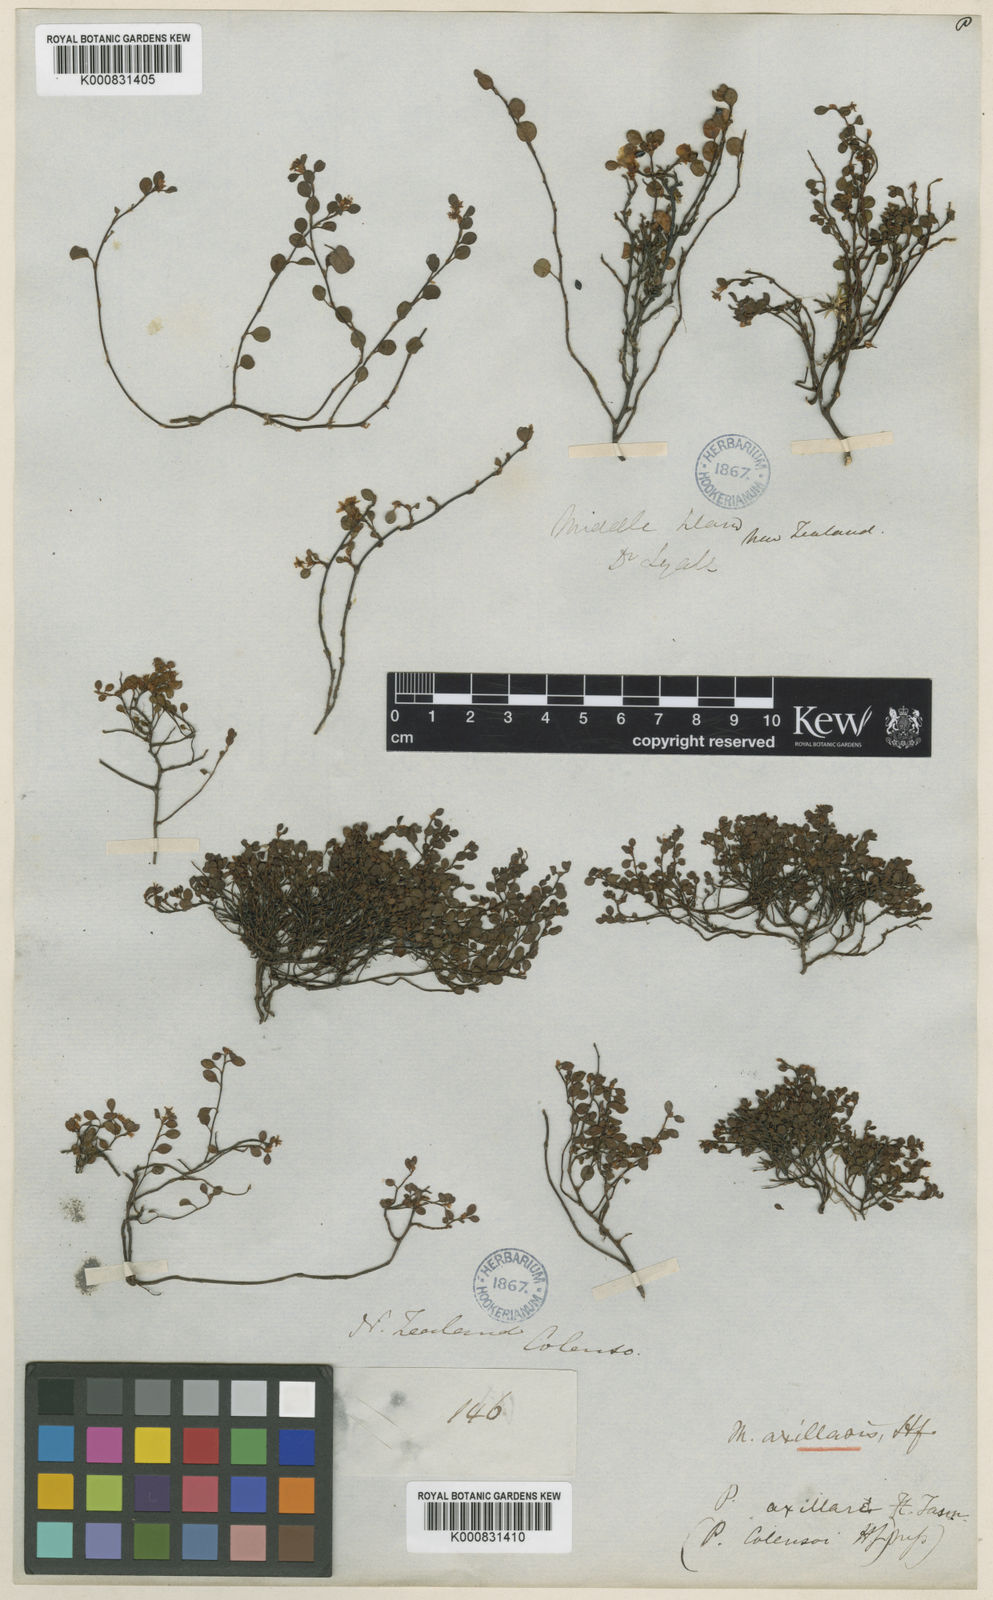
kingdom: Plantae
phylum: Tracheophyta
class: Magnoliopsida
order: Caryophyllales
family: Polygonaceae
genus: Muehlenbeckia
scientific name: Muehlenbeckia axillaris
